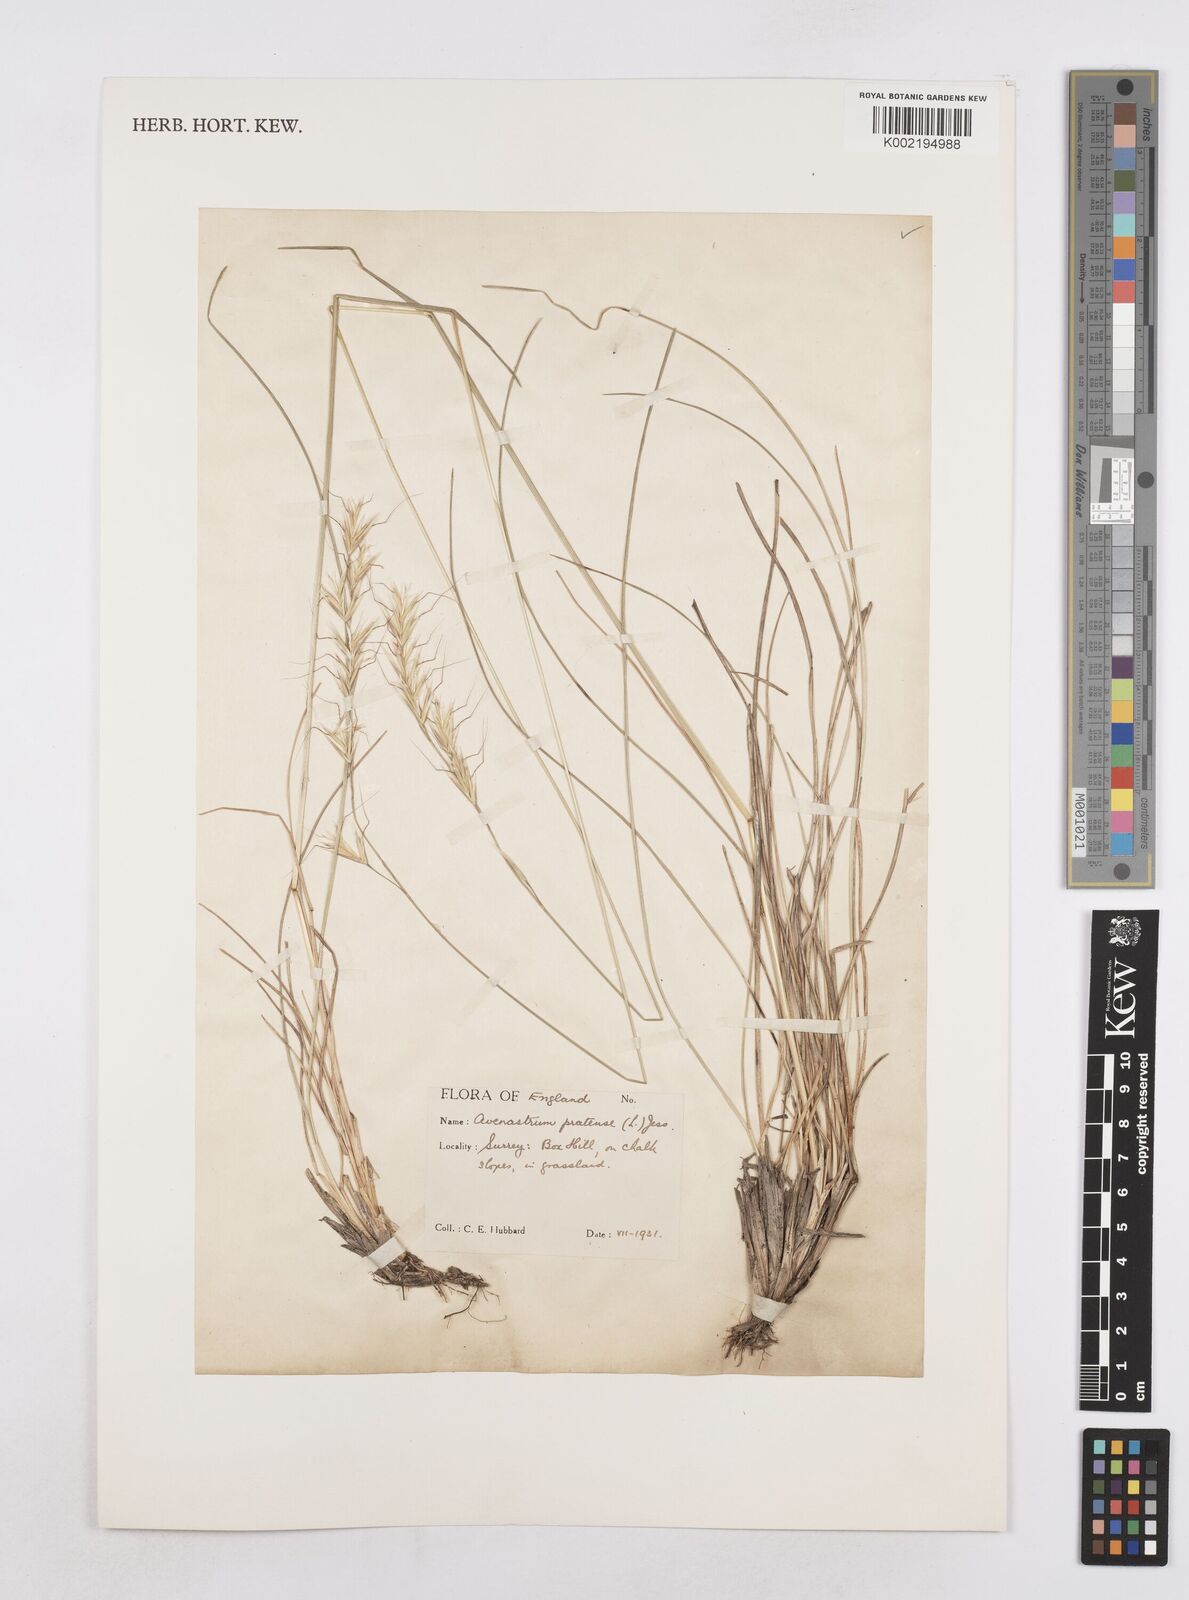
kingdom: Plantae
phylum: Tracheophyta
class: Liliopsida
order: Poales
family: Poaceae
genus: Helictochloa
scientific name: Helictochloa pratensis
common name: Meadow oat grass
